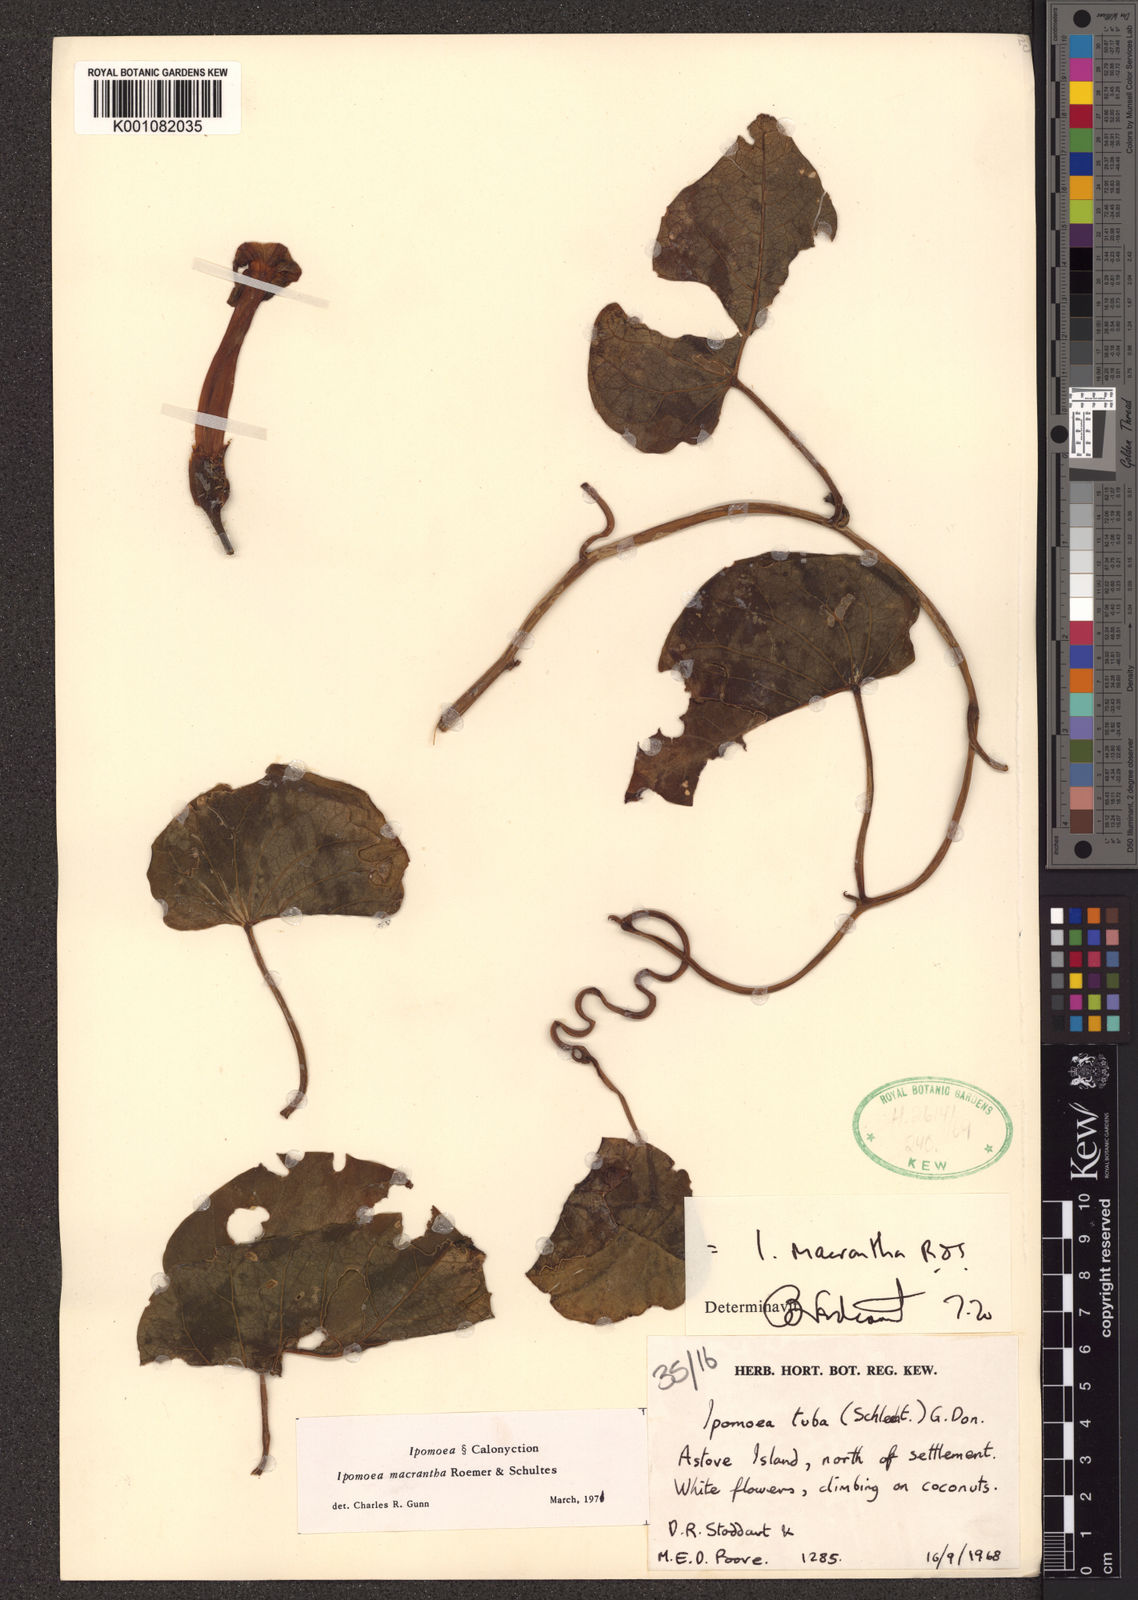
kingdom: Plantae
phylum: Tracheophyta
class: Magnoliopsida
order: Solanales
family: Convolvulaceae
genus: Ipomoea
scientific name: Ipomoea violacea
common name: Beach moonflower
